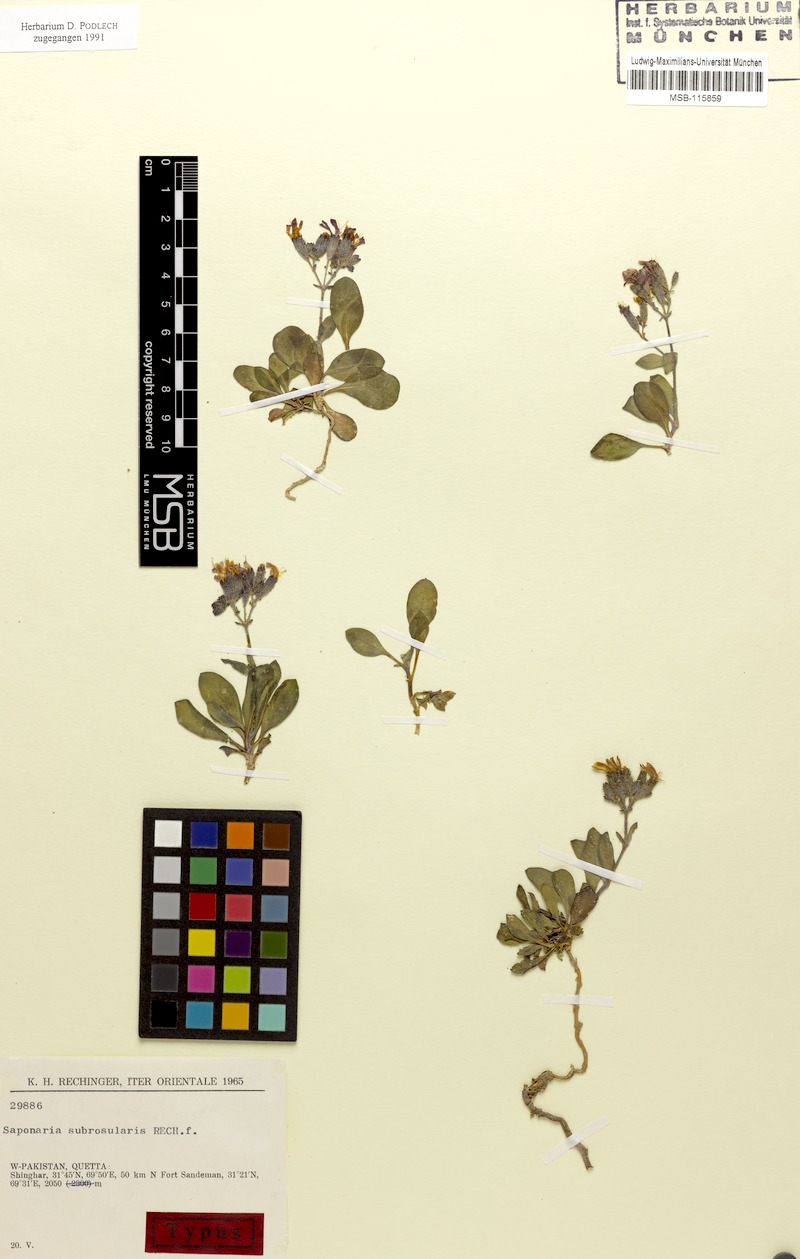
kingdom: Plantae
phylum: Tracheophyta
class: Magnoliopsida
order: Caryophyllales
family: Caryophyllaceae
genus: Saponaria
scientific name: Saponaria subrosularis
